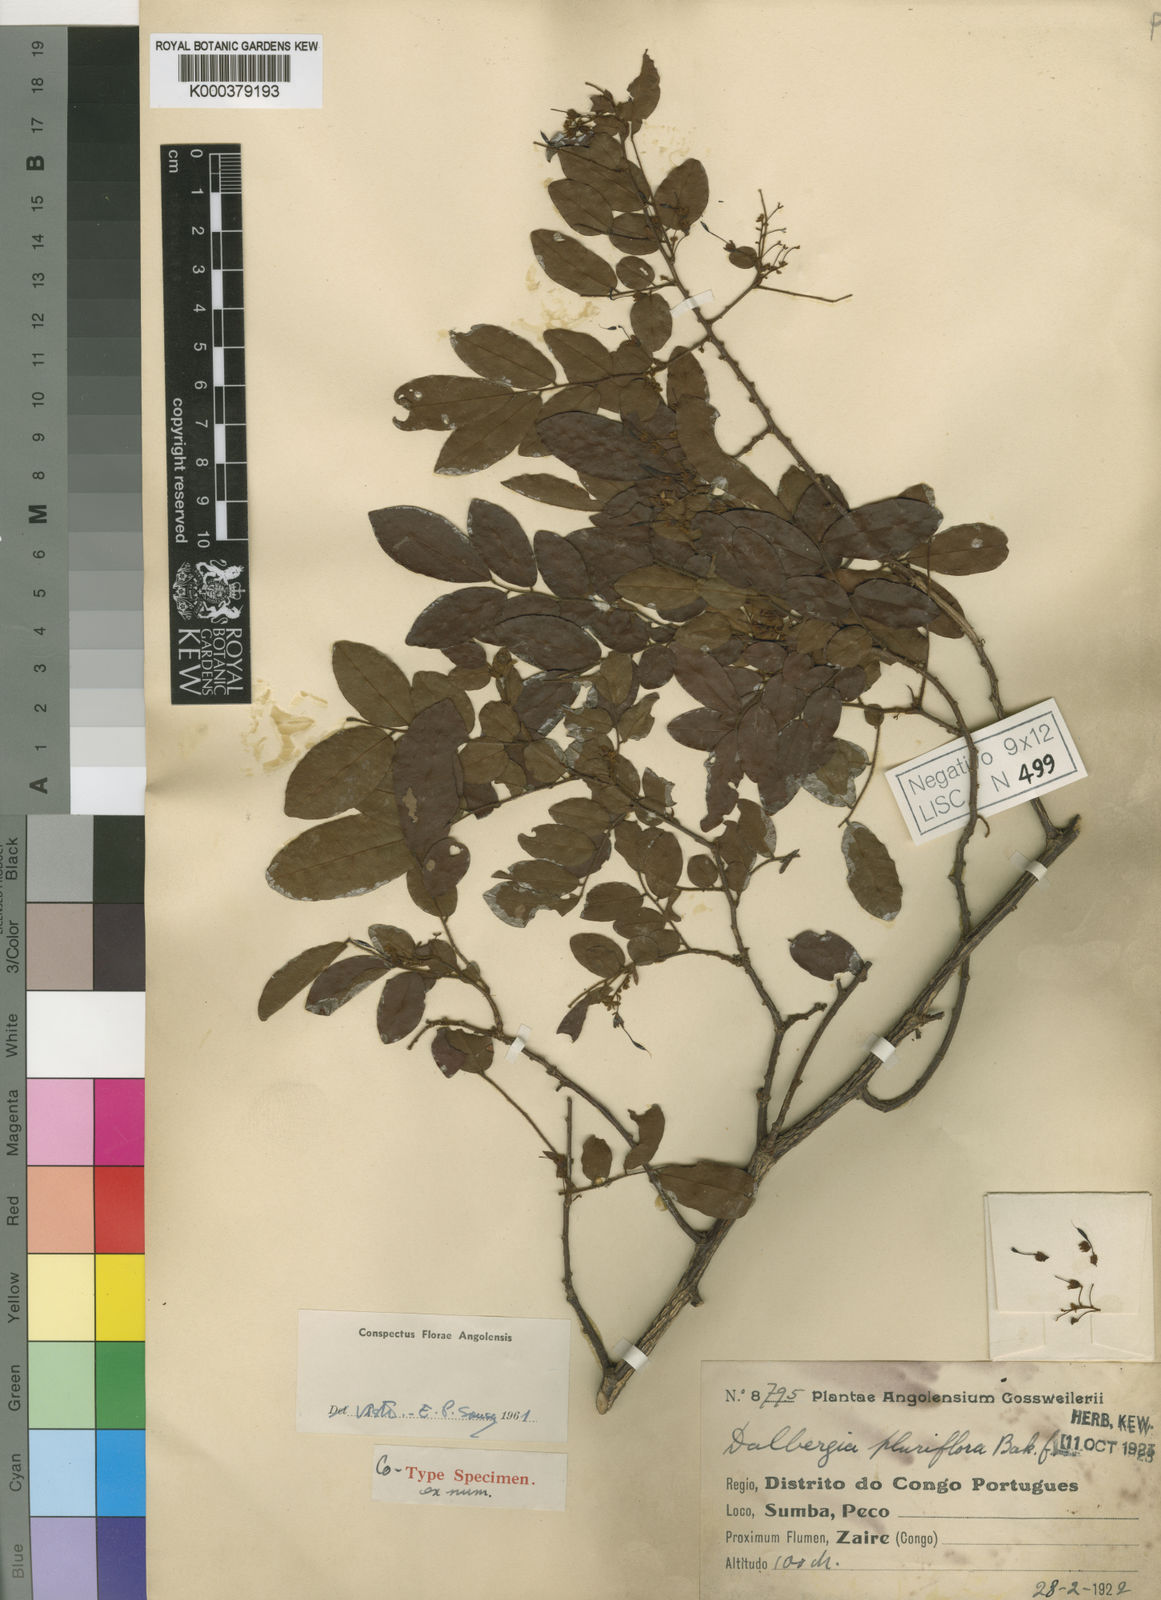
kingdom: Plantae
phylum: Tracheophyta
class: Magnoliopsida
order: Fabales
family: Fabaceae
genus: Dalbergia
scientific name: Dalbergia pluriflora
